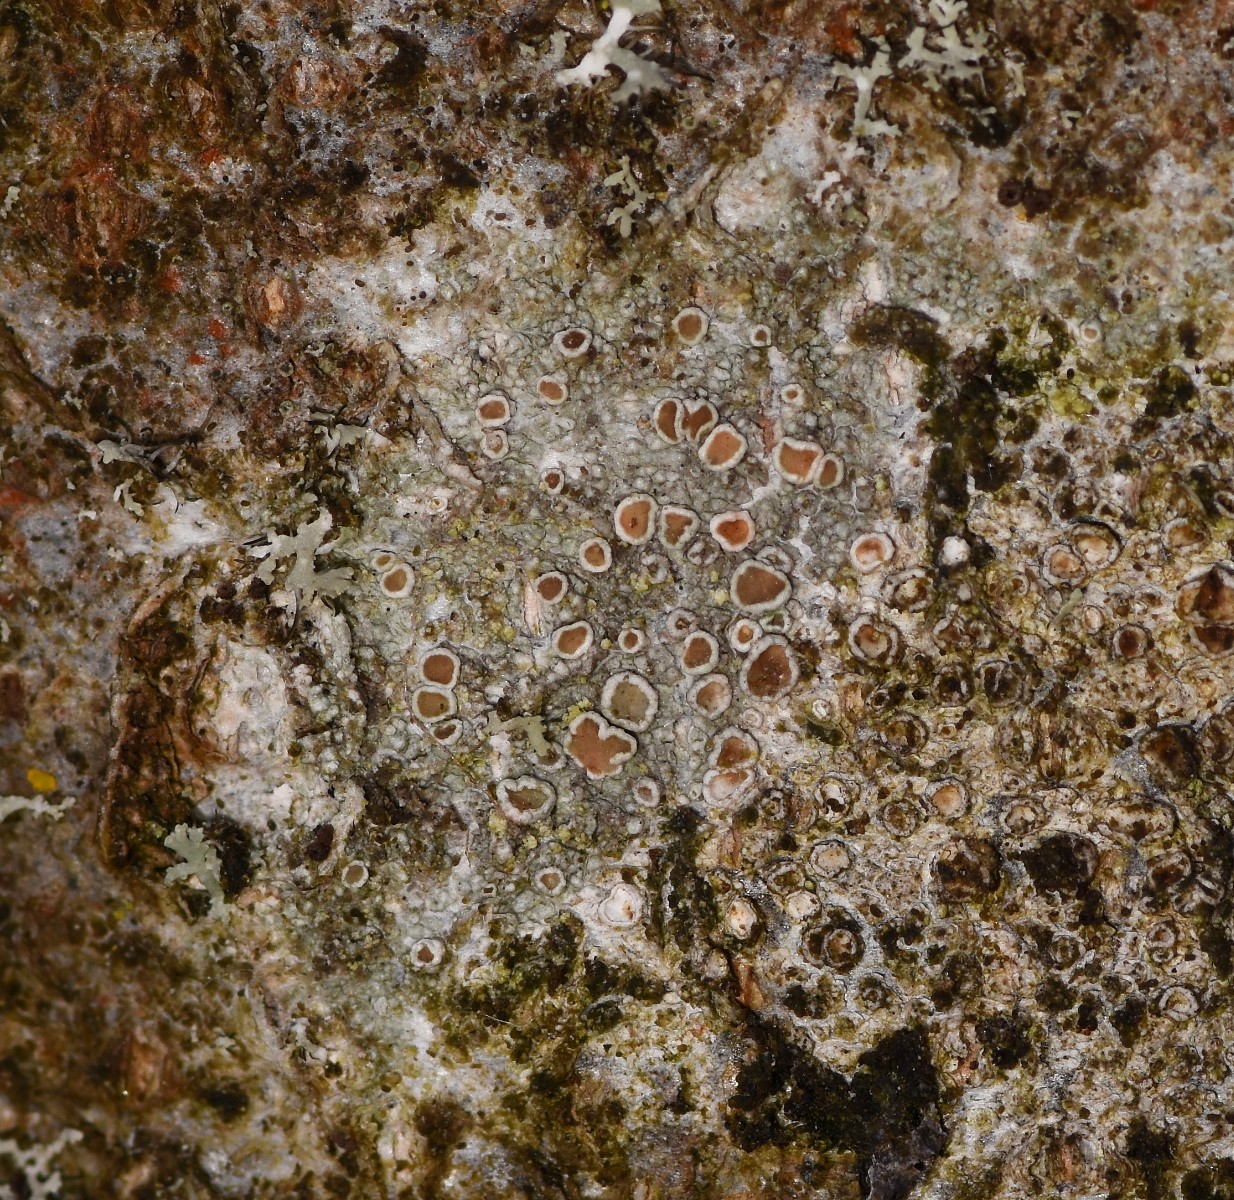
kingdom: Fungi
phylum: Ascomycota
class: Lecanoromycetes
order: Lecanorales
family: Lecanoraceae
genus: Lecanora
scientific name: Lecanora chlarotera
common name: brun kantskivelav
